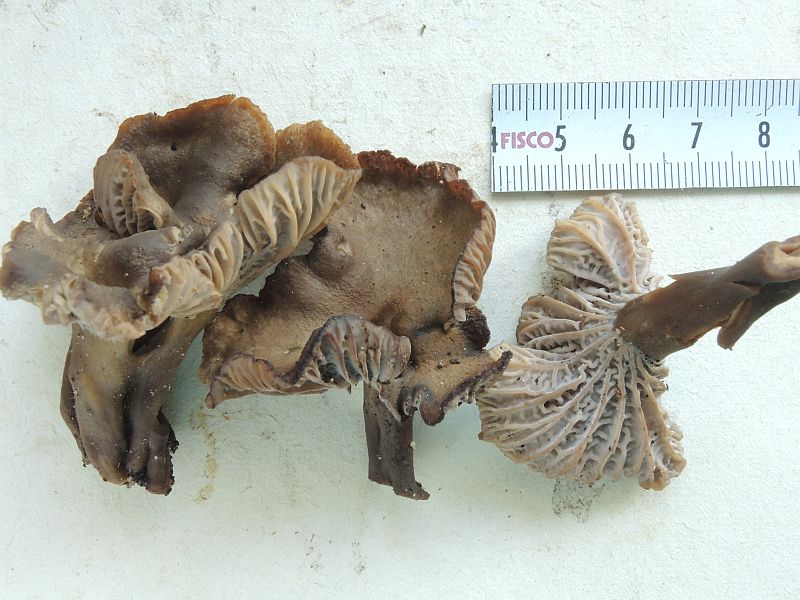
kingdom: Fungi
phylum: Basidiomycota
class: Agaricomycetes
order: Cantharellales
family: Hydnaceae
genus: Craterellus
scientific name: Craterellus tubaeformis
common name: tragt-kantarel
